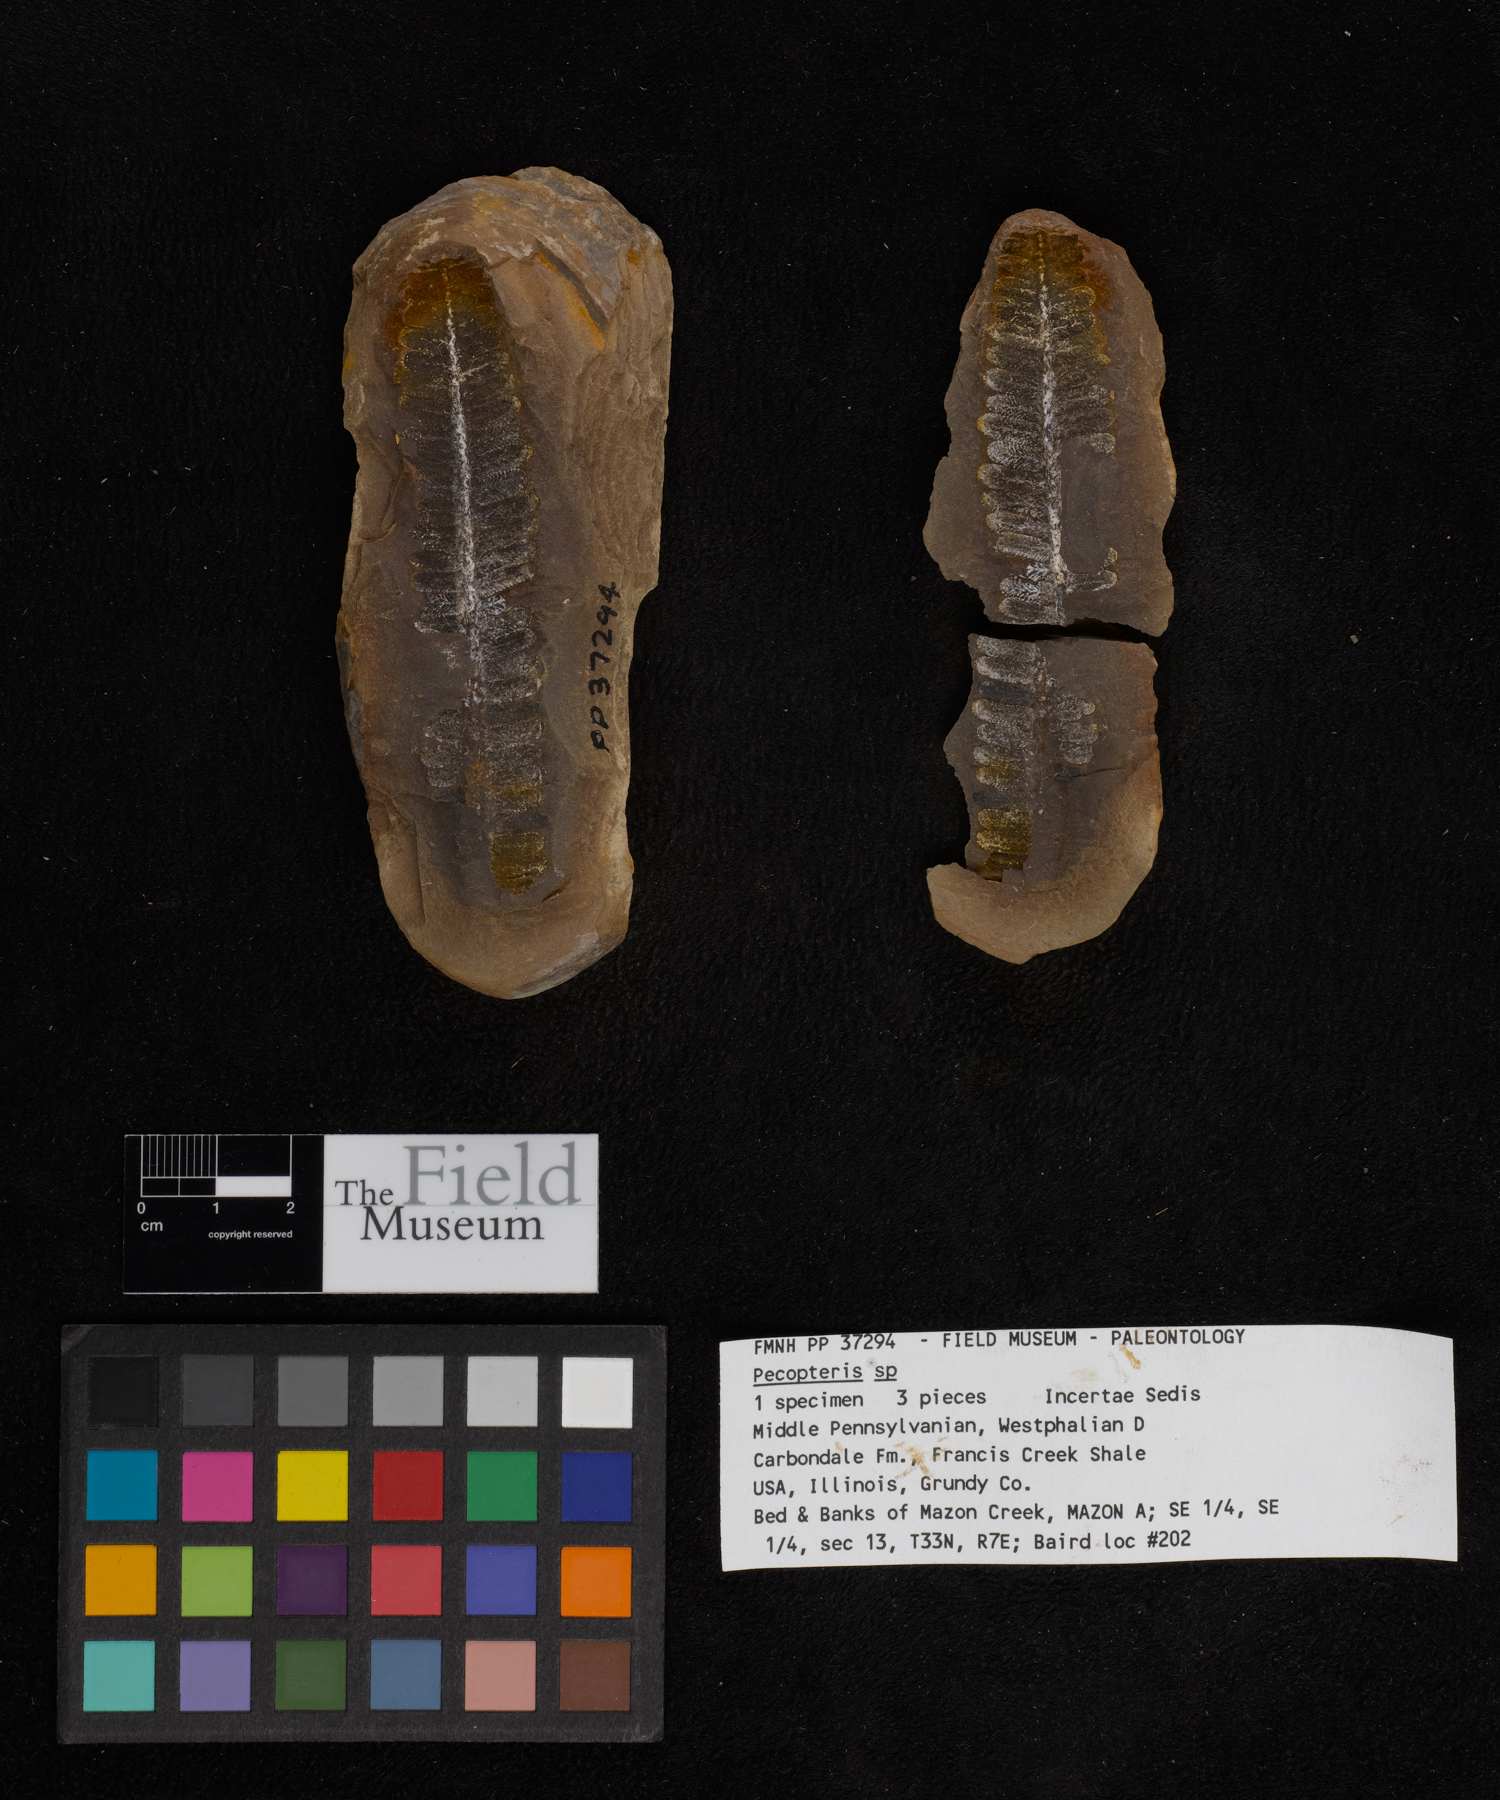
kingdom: Plantae
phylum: Tracheophyta
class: Polypodiopsida
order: Marattiales
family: Asterothecaceae
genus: Pecopteris
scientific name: Pecopteris
